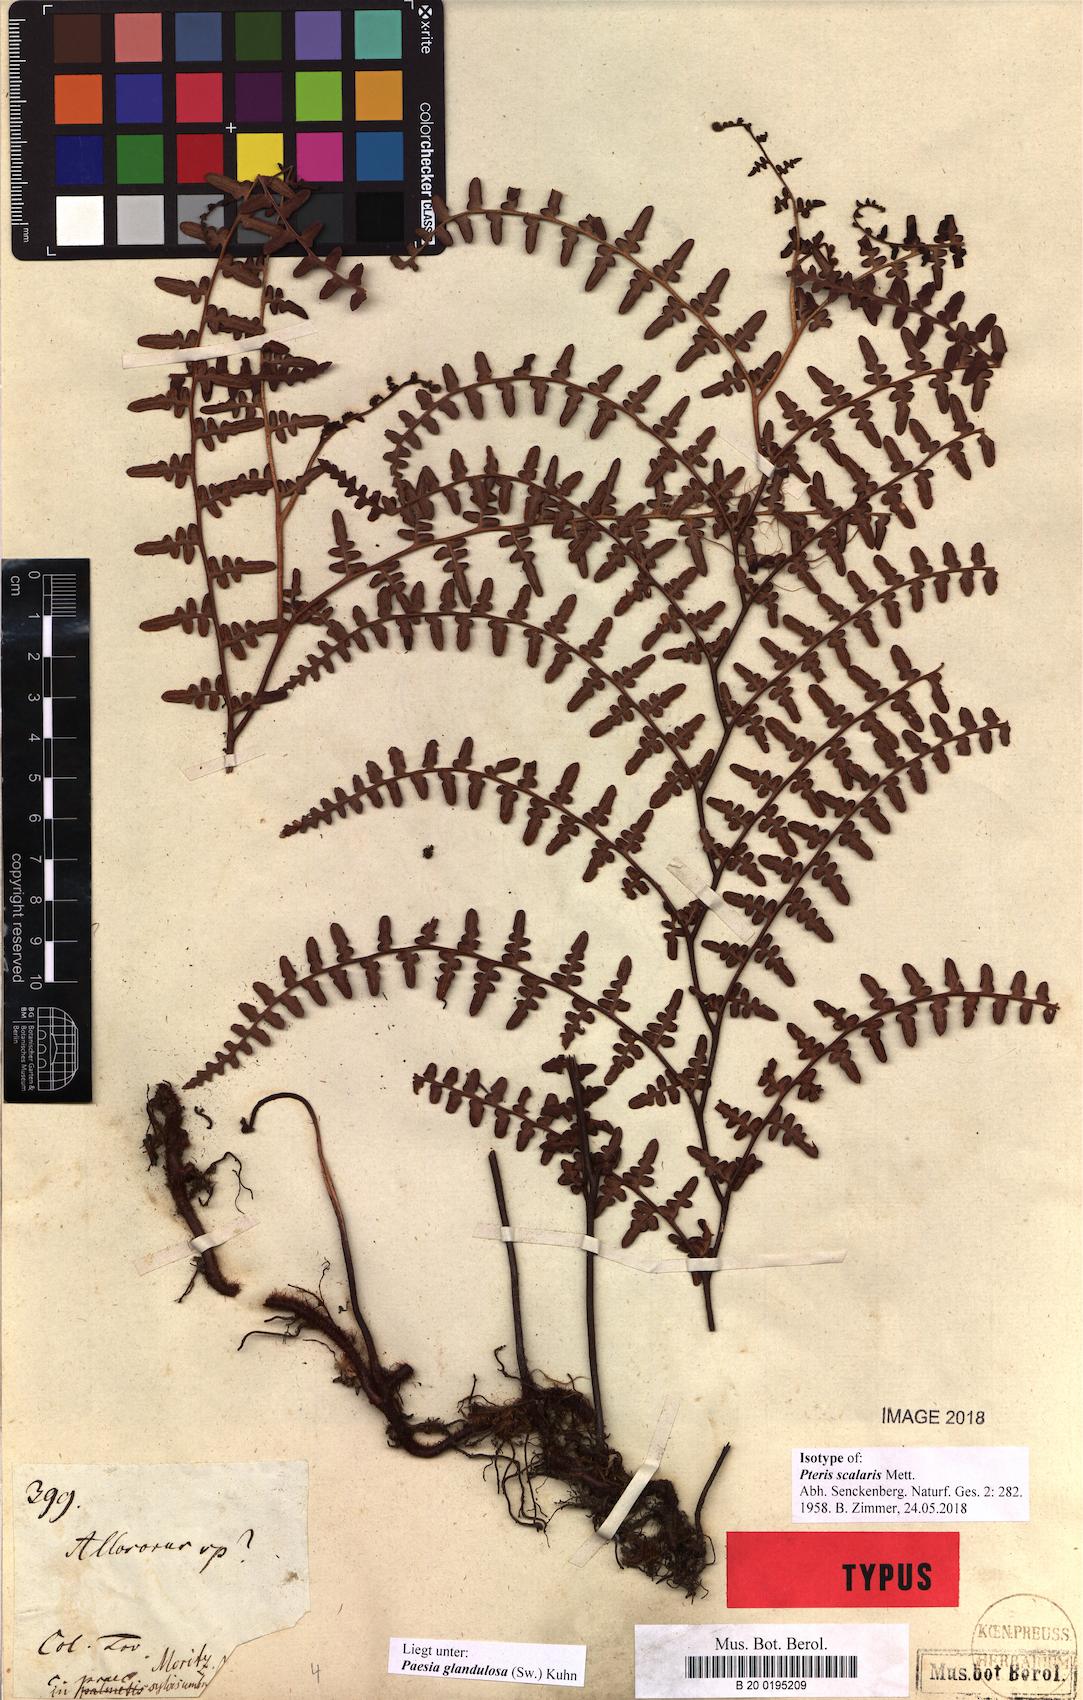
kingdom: Plantae
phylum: Tracheophyta
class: Polypodiopsida
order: Polypodiales
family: Dennstaedtiaceae
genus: Paesia
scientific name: Paesia glandulosa
